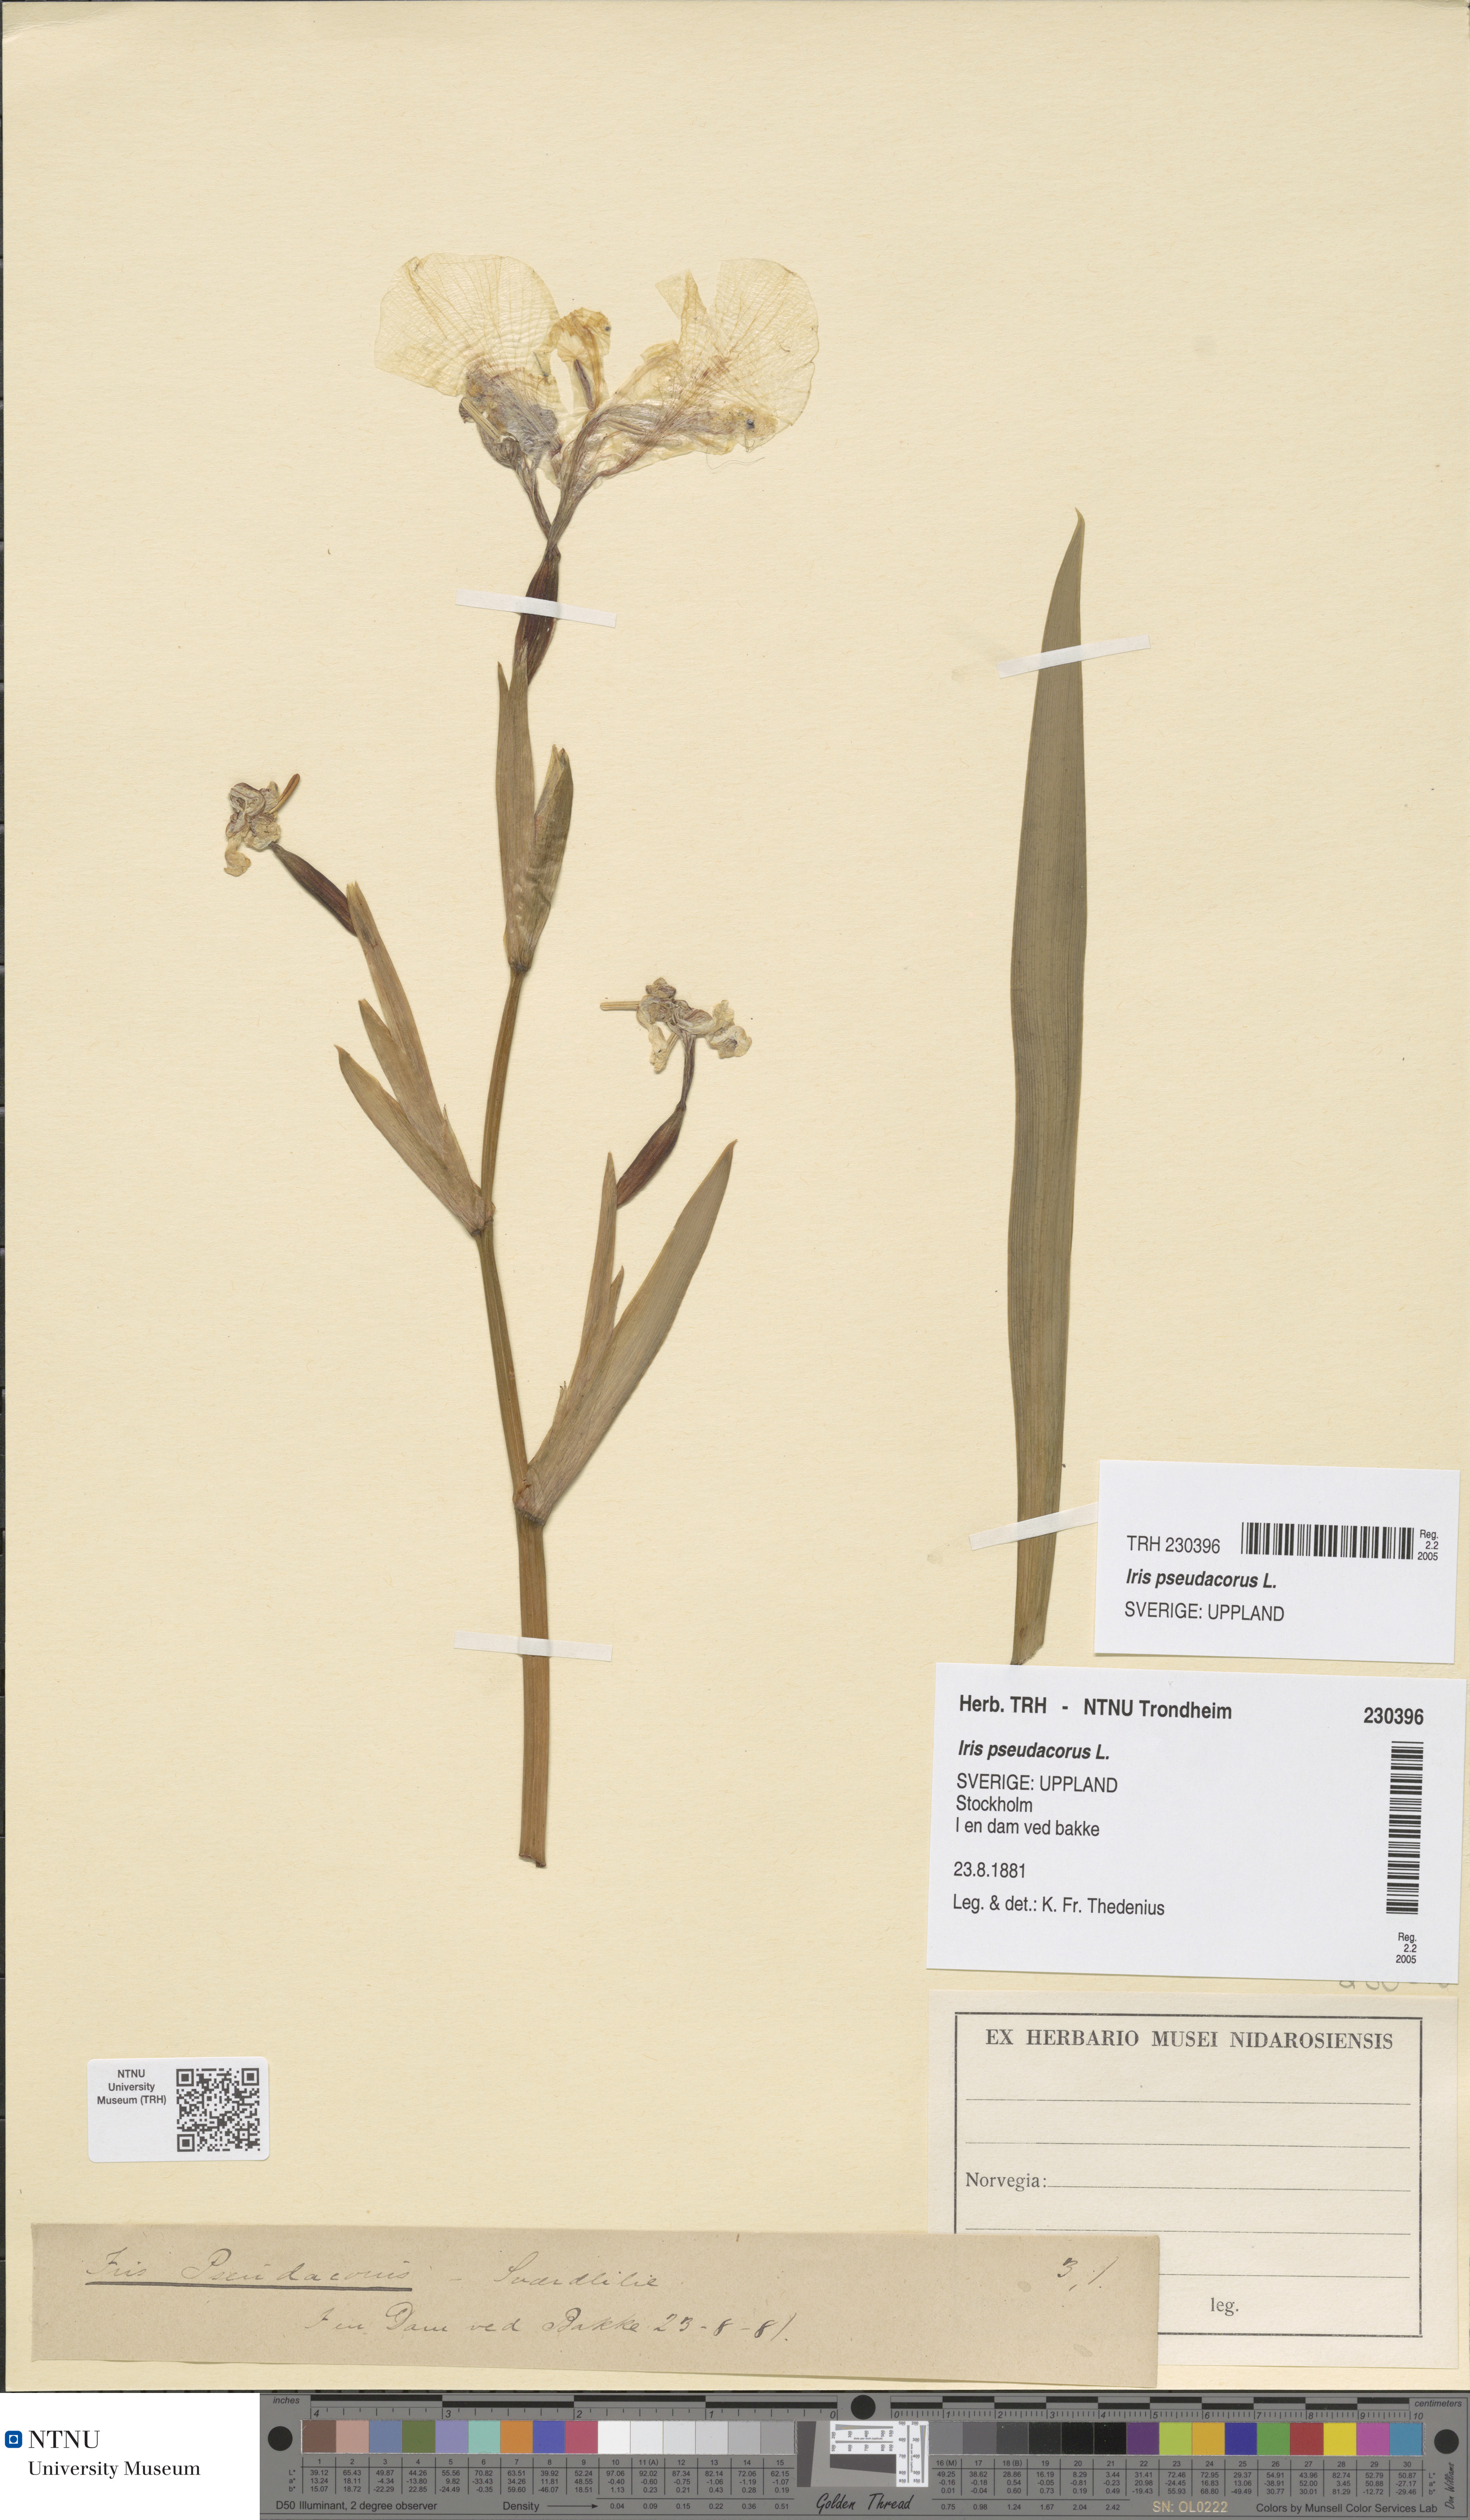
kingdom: Plantae
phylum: Tracheophyta
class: Liliopsida
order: Asparagales
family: Iridaceae
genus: Iris
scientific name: Iris pseudacorus
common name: Yellow flag
